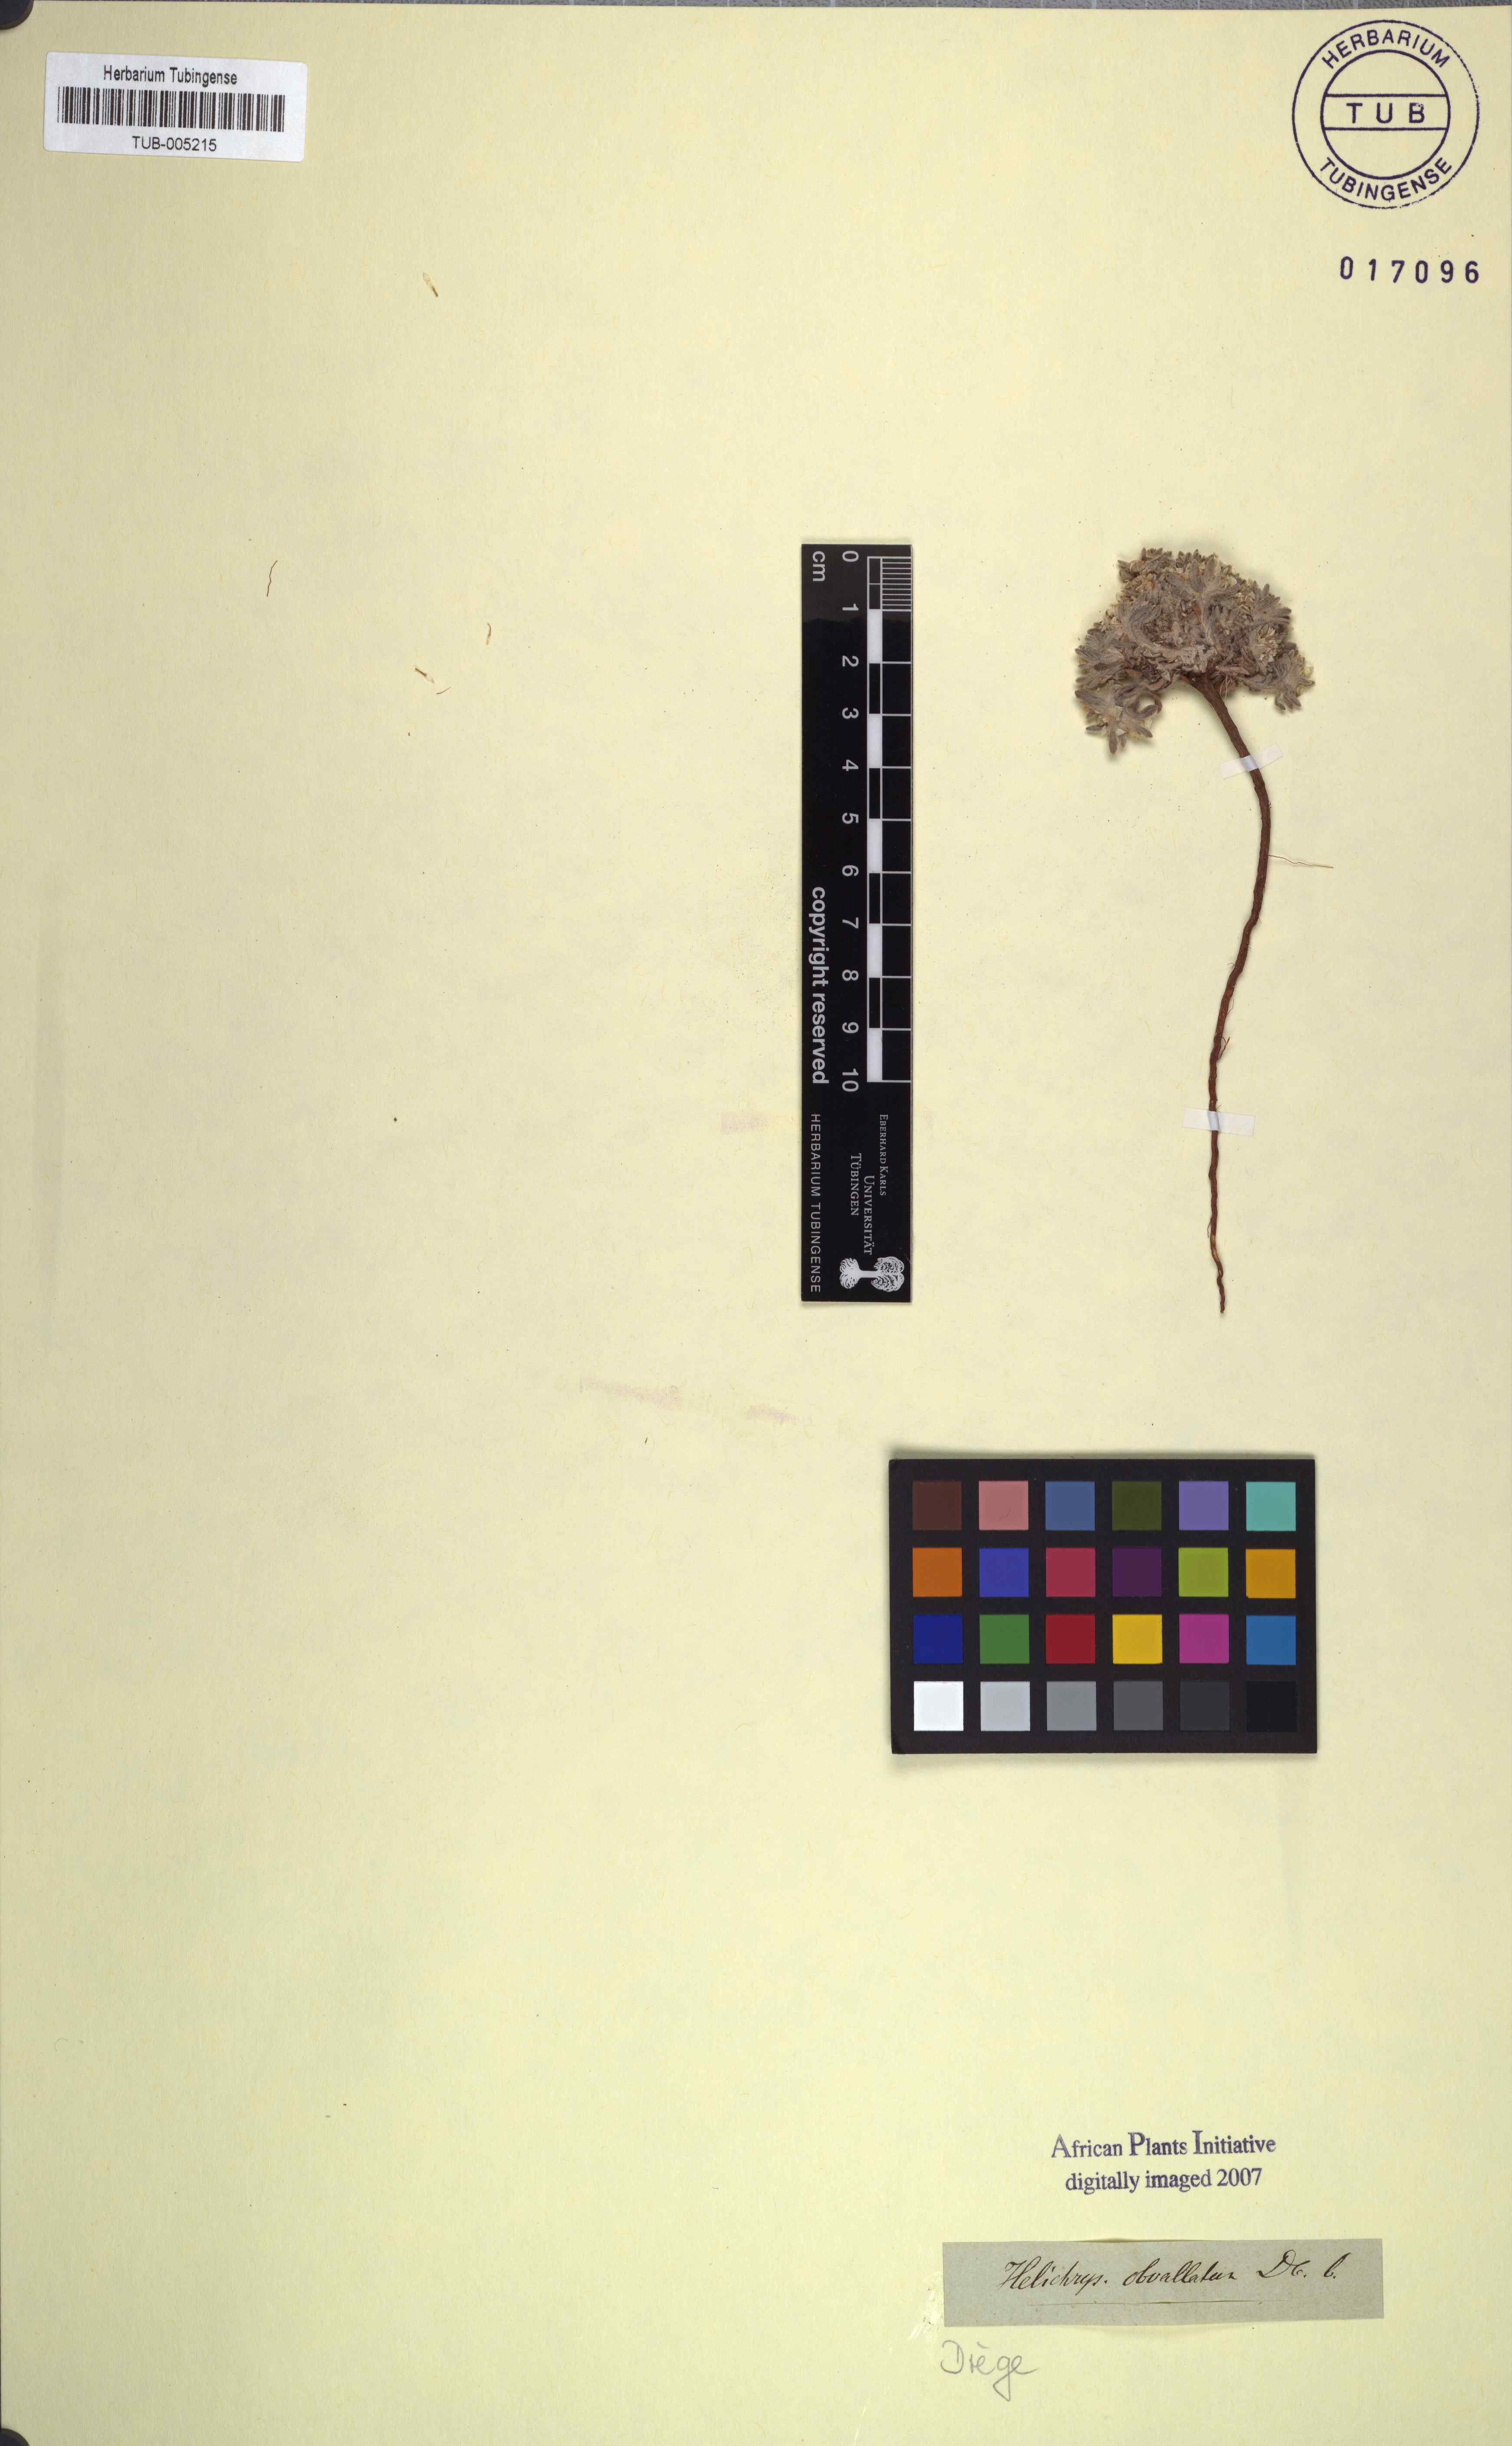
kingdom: Plantae
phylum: Tracheophyta
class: Magnoliopsida
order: Asterales
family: Asteraceae
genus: Helichrysum
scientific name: Helichrysum cerastioides
